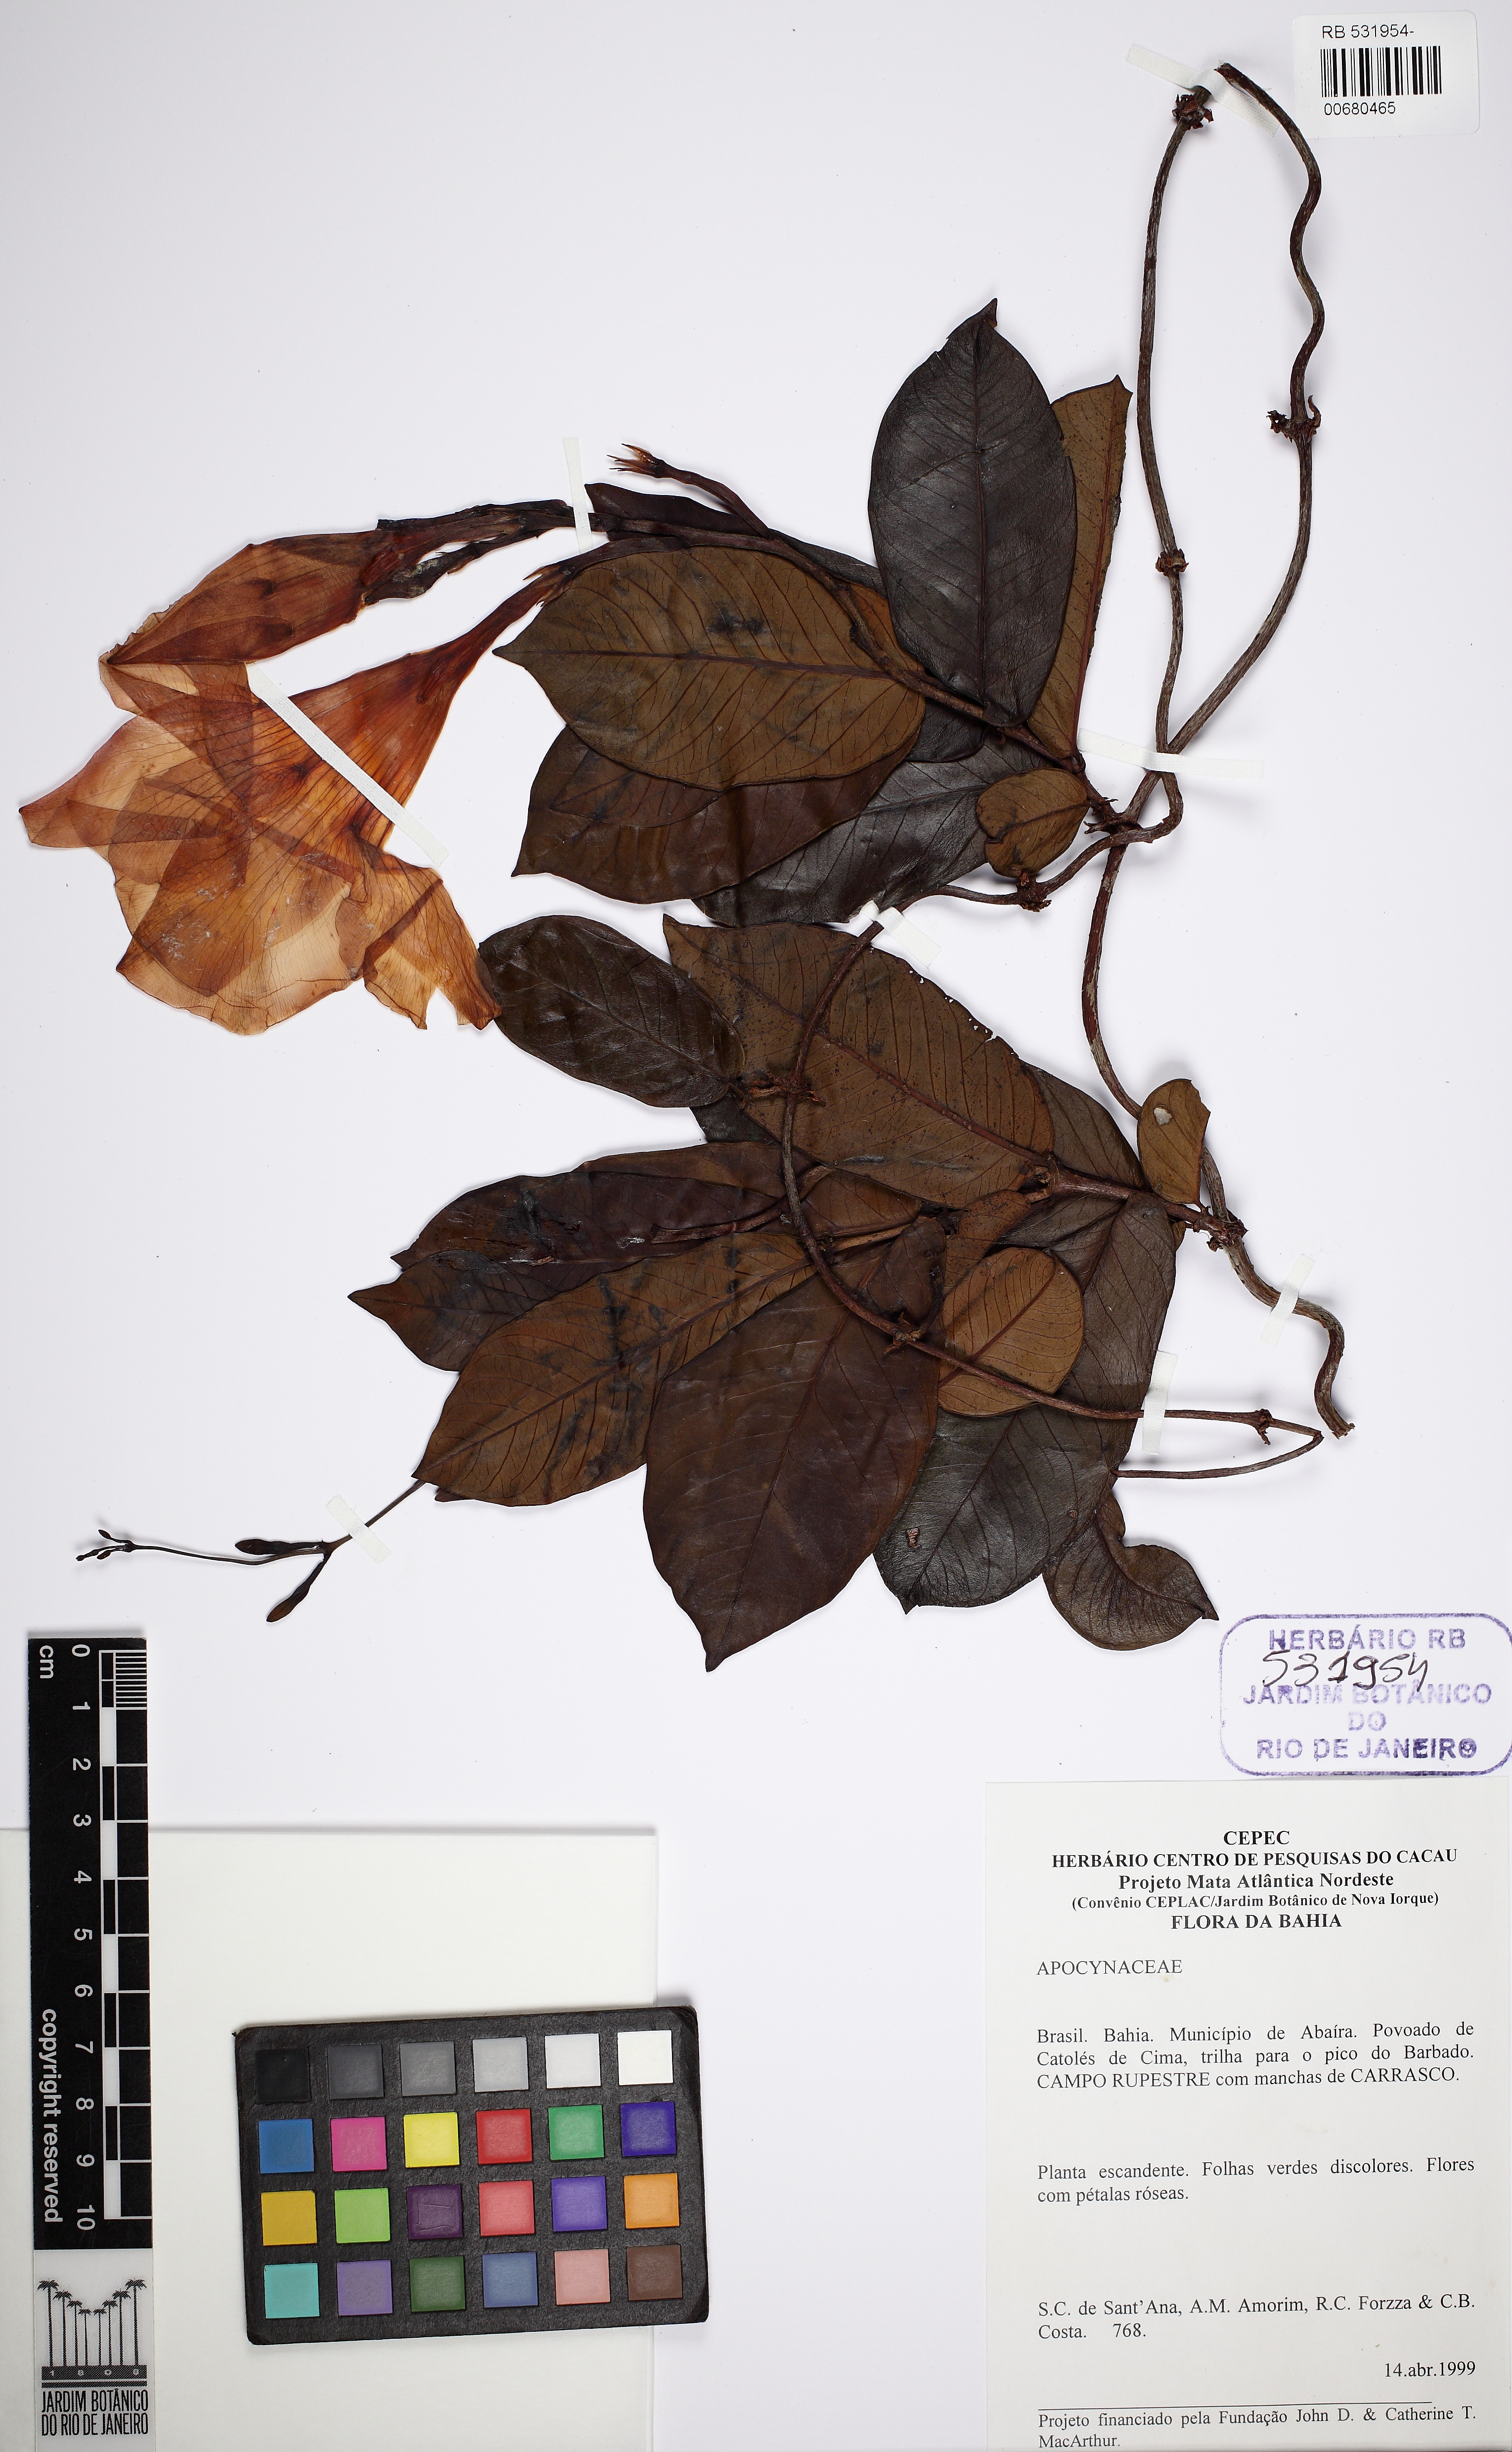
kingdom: Plantae
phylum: Tracheophyta
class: Magnoliopsida
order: Gentianales
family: Apocynaceae
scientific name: Apocynaceae
